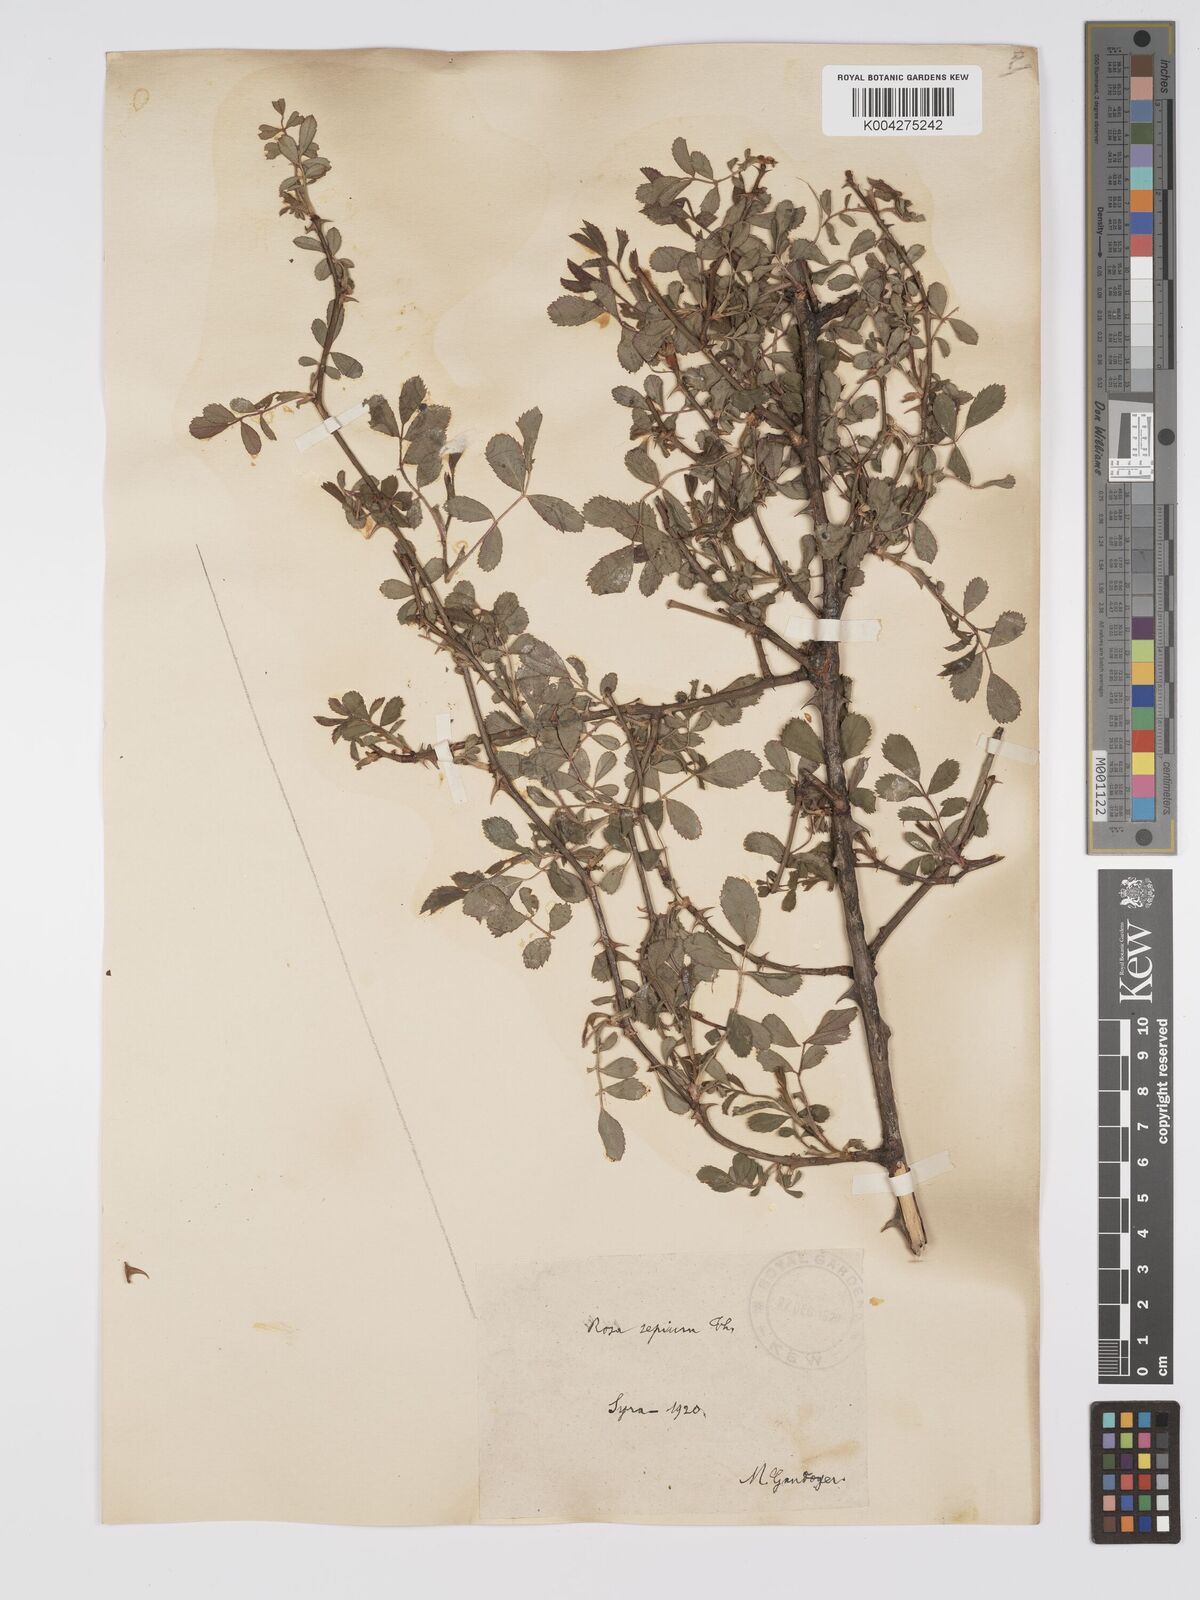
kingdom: Plantae
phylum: Tracheophyta
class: Magnoliopsida
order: Rosales
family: Rosaceae
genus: Rosa
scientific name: Rosa
